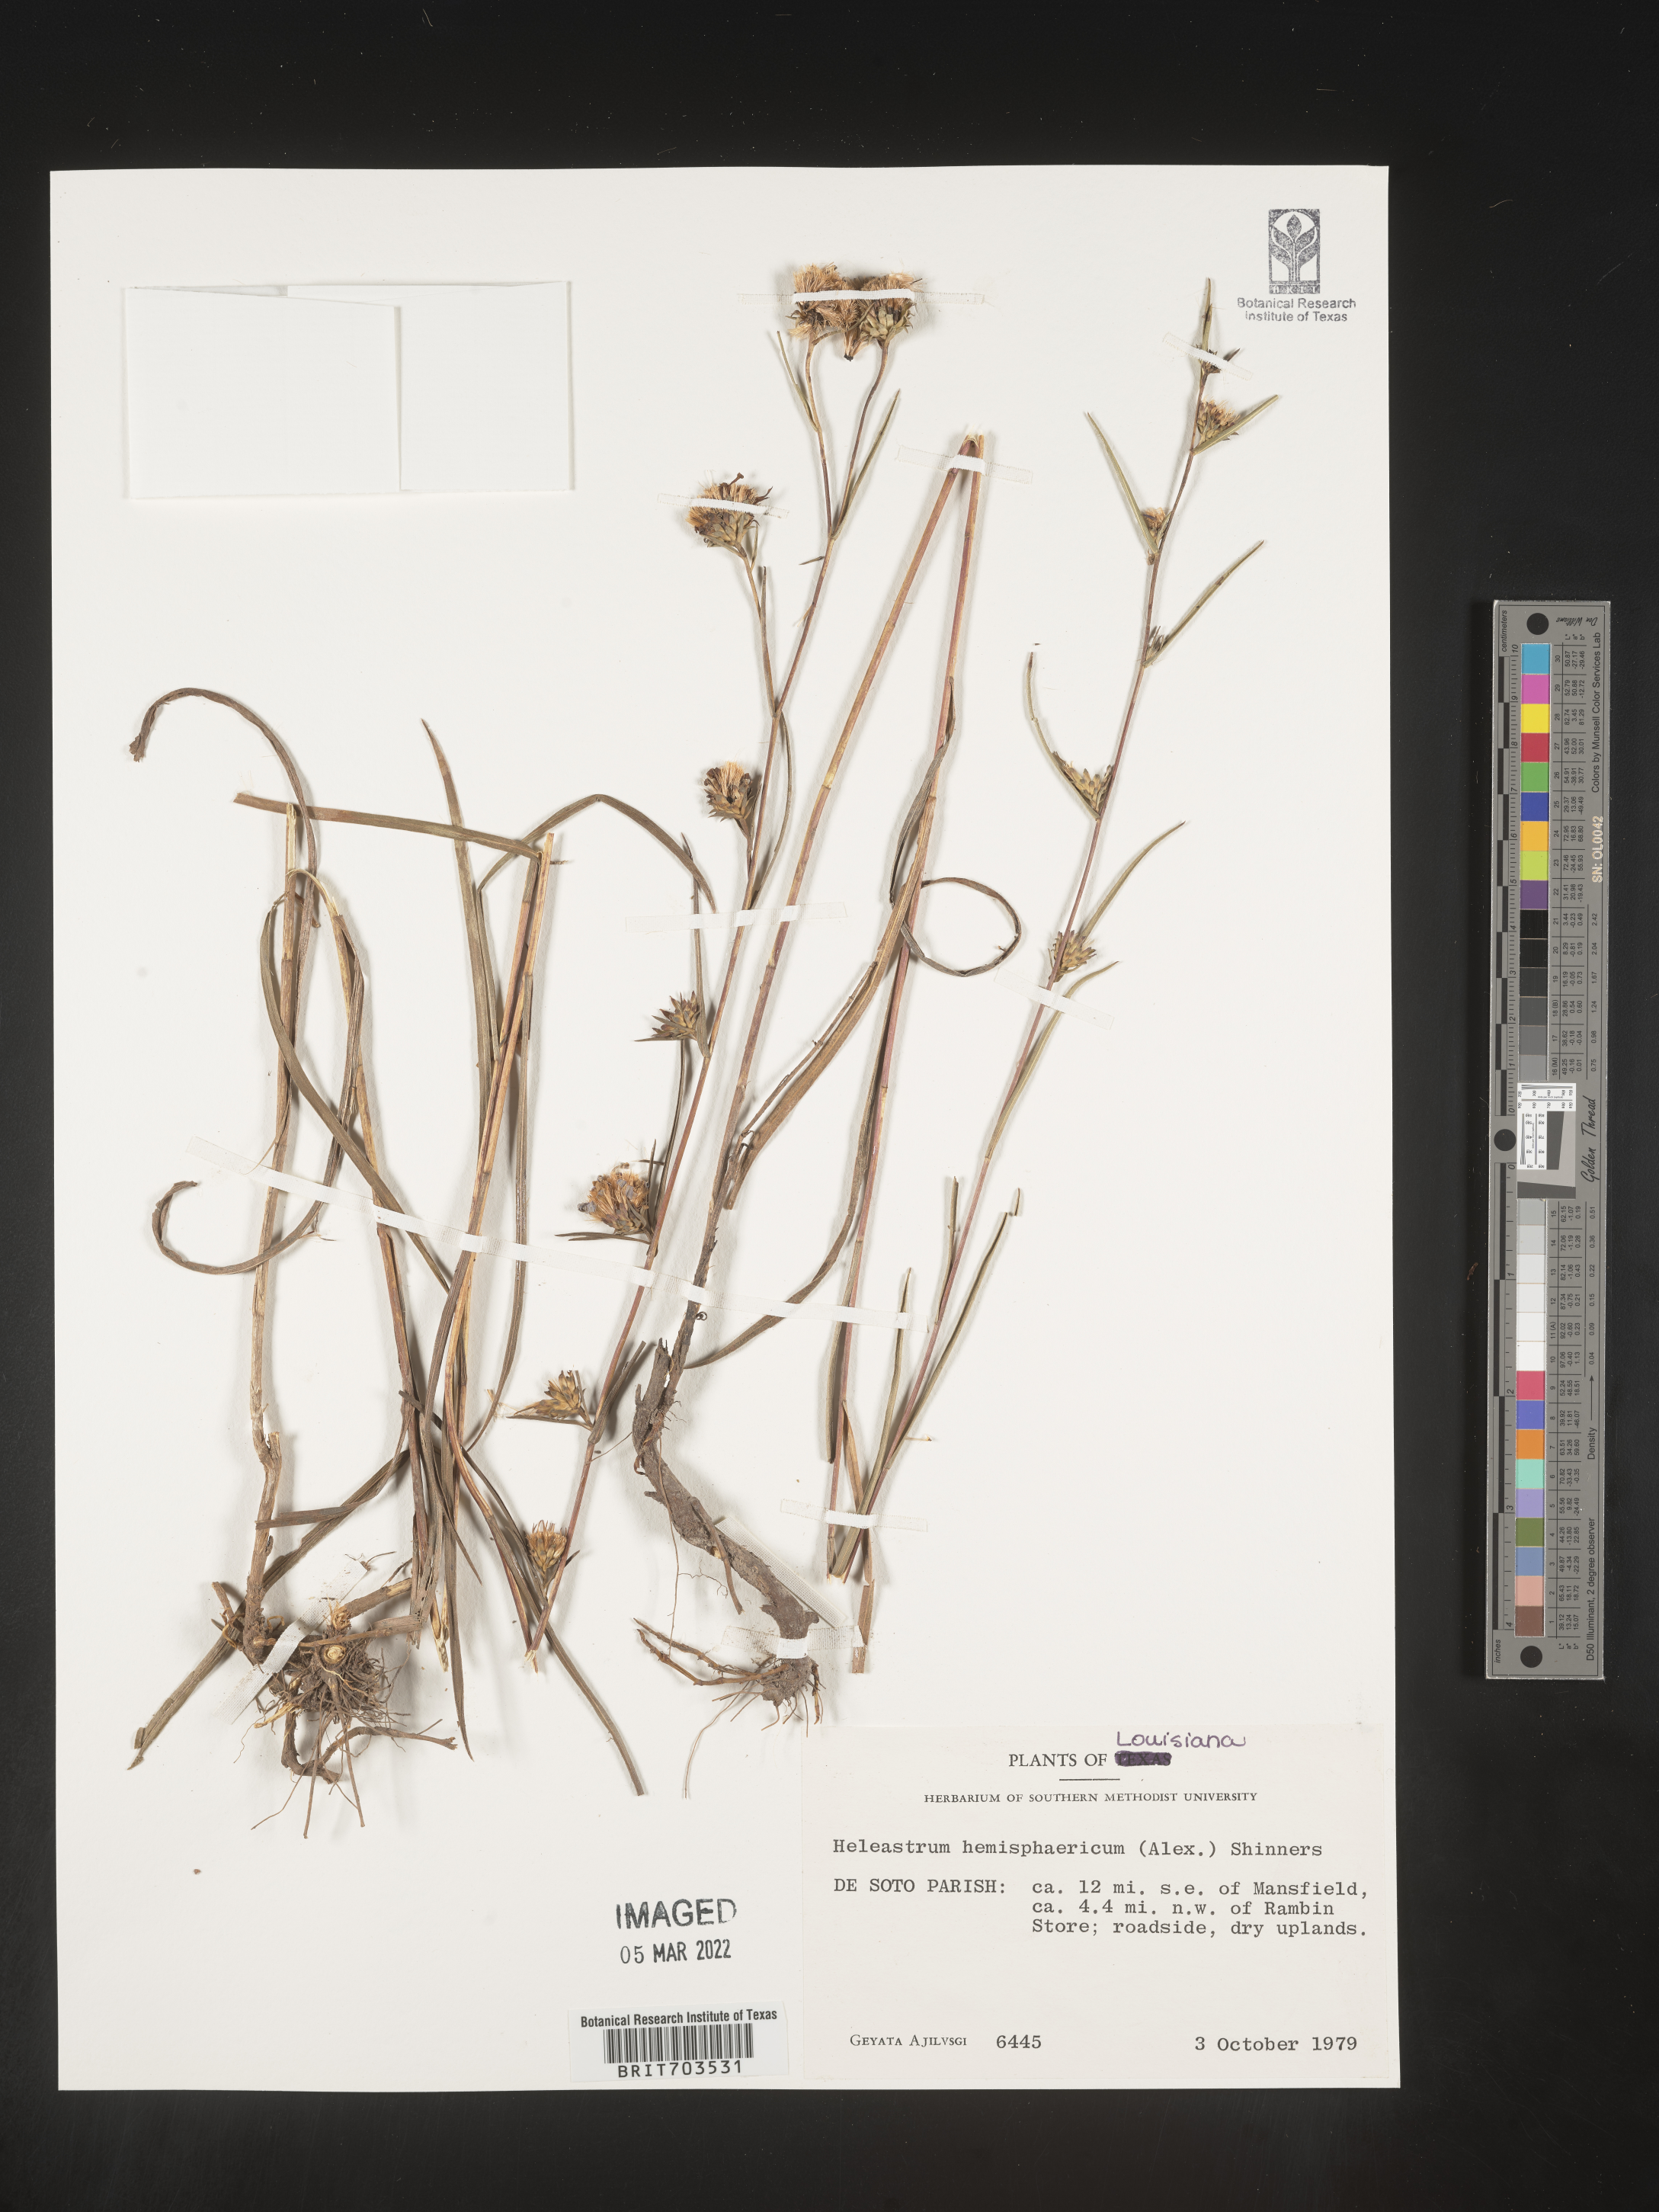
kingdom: Plantae
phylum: Tracheophyta
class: Magnoliopsida
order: Asterales
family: Asteraceae
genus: Eurybia
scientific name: Eurybia hemispherica
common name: Showy aster
